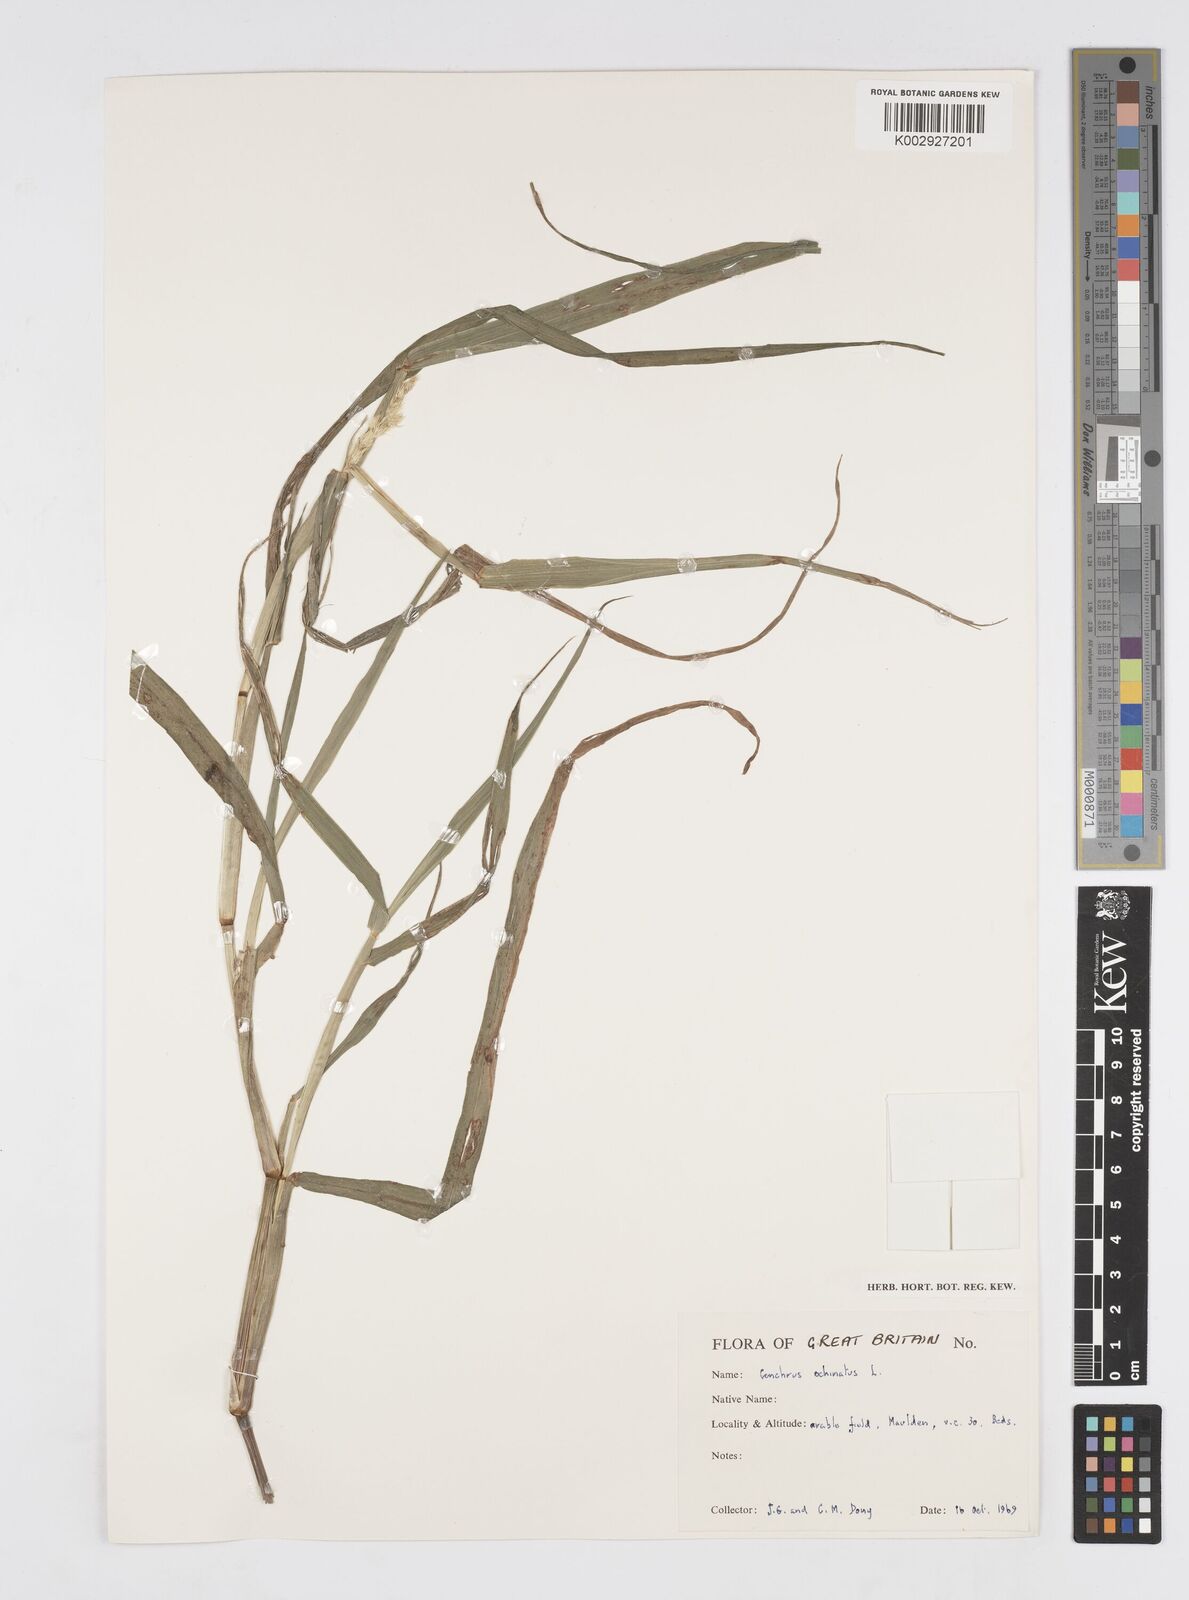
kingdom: Plantae
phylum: Tracheophyta
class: Liliopsida
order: Poales
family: Poaceae
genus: Cenchrus
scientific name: Cenchrus echinatus
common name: Southern sandbur
